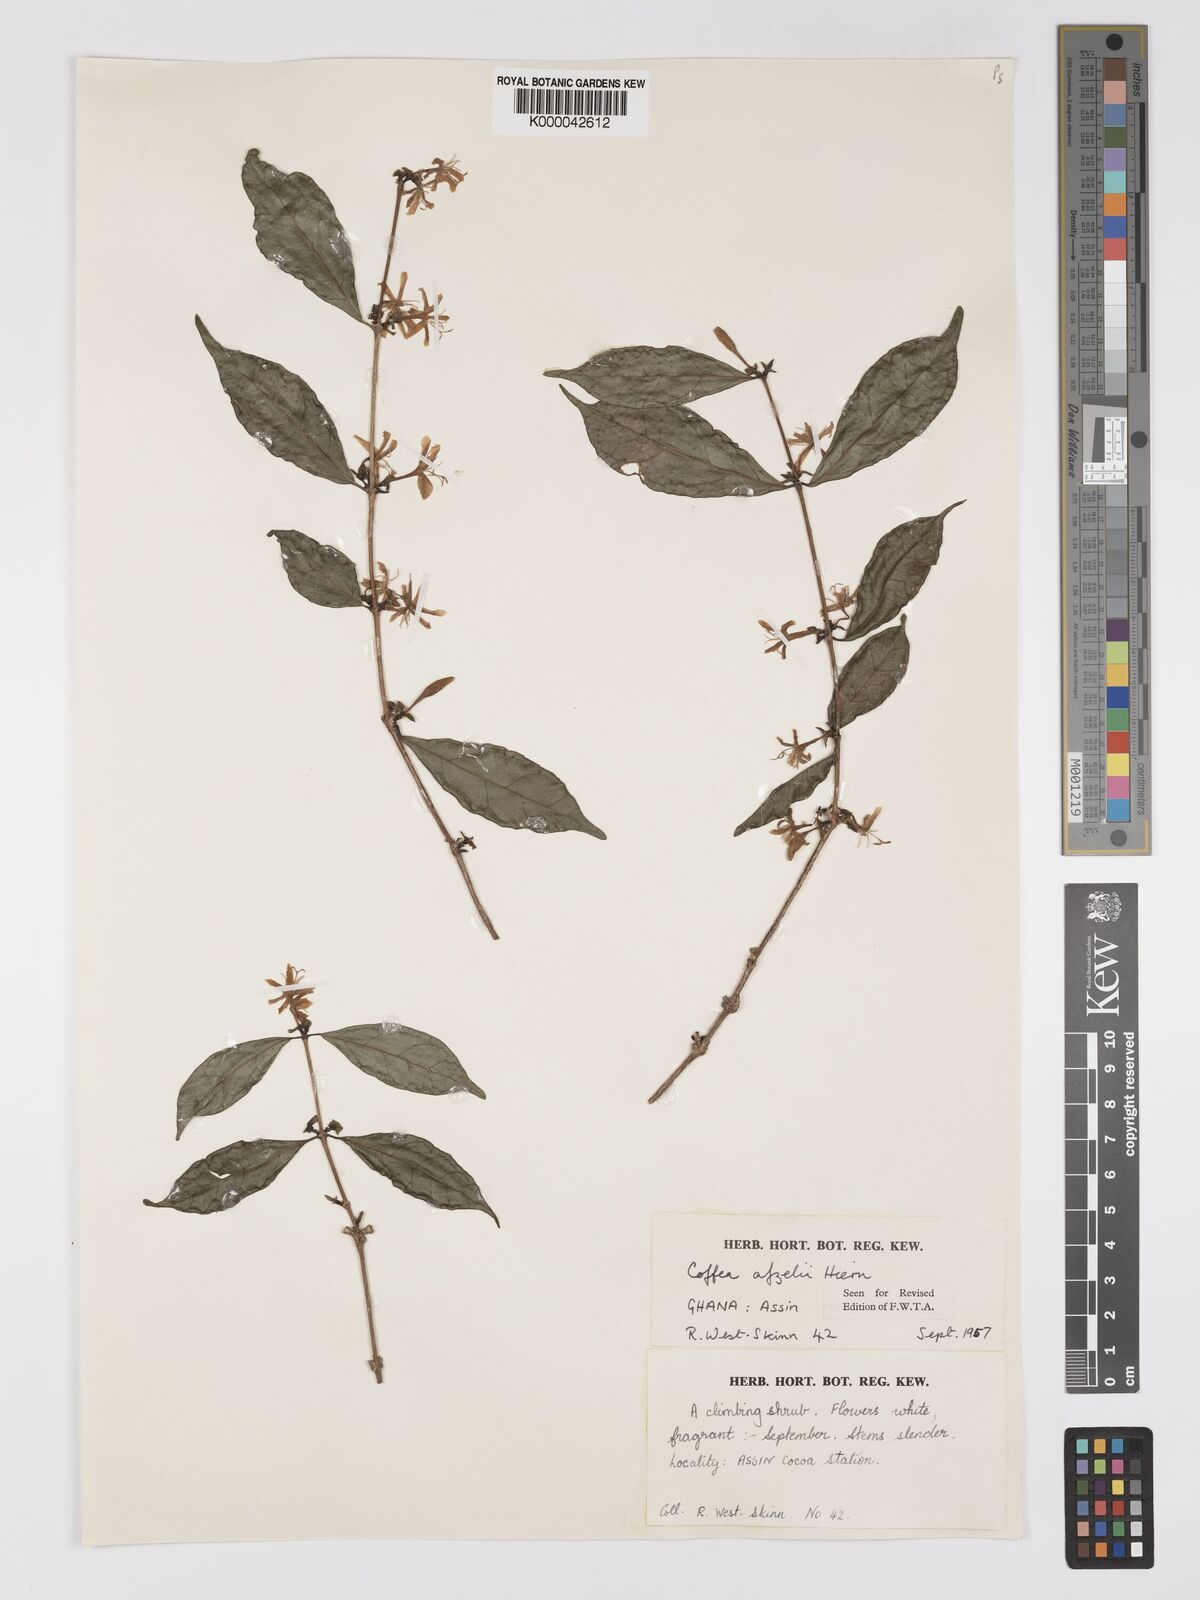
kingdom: Plantae
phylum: Tracheophyta
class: Magnoliopsida
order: Gentianales
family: Rubiaceae
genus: Argocoffeopsis
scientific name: Argocoffeopsis afzelii
